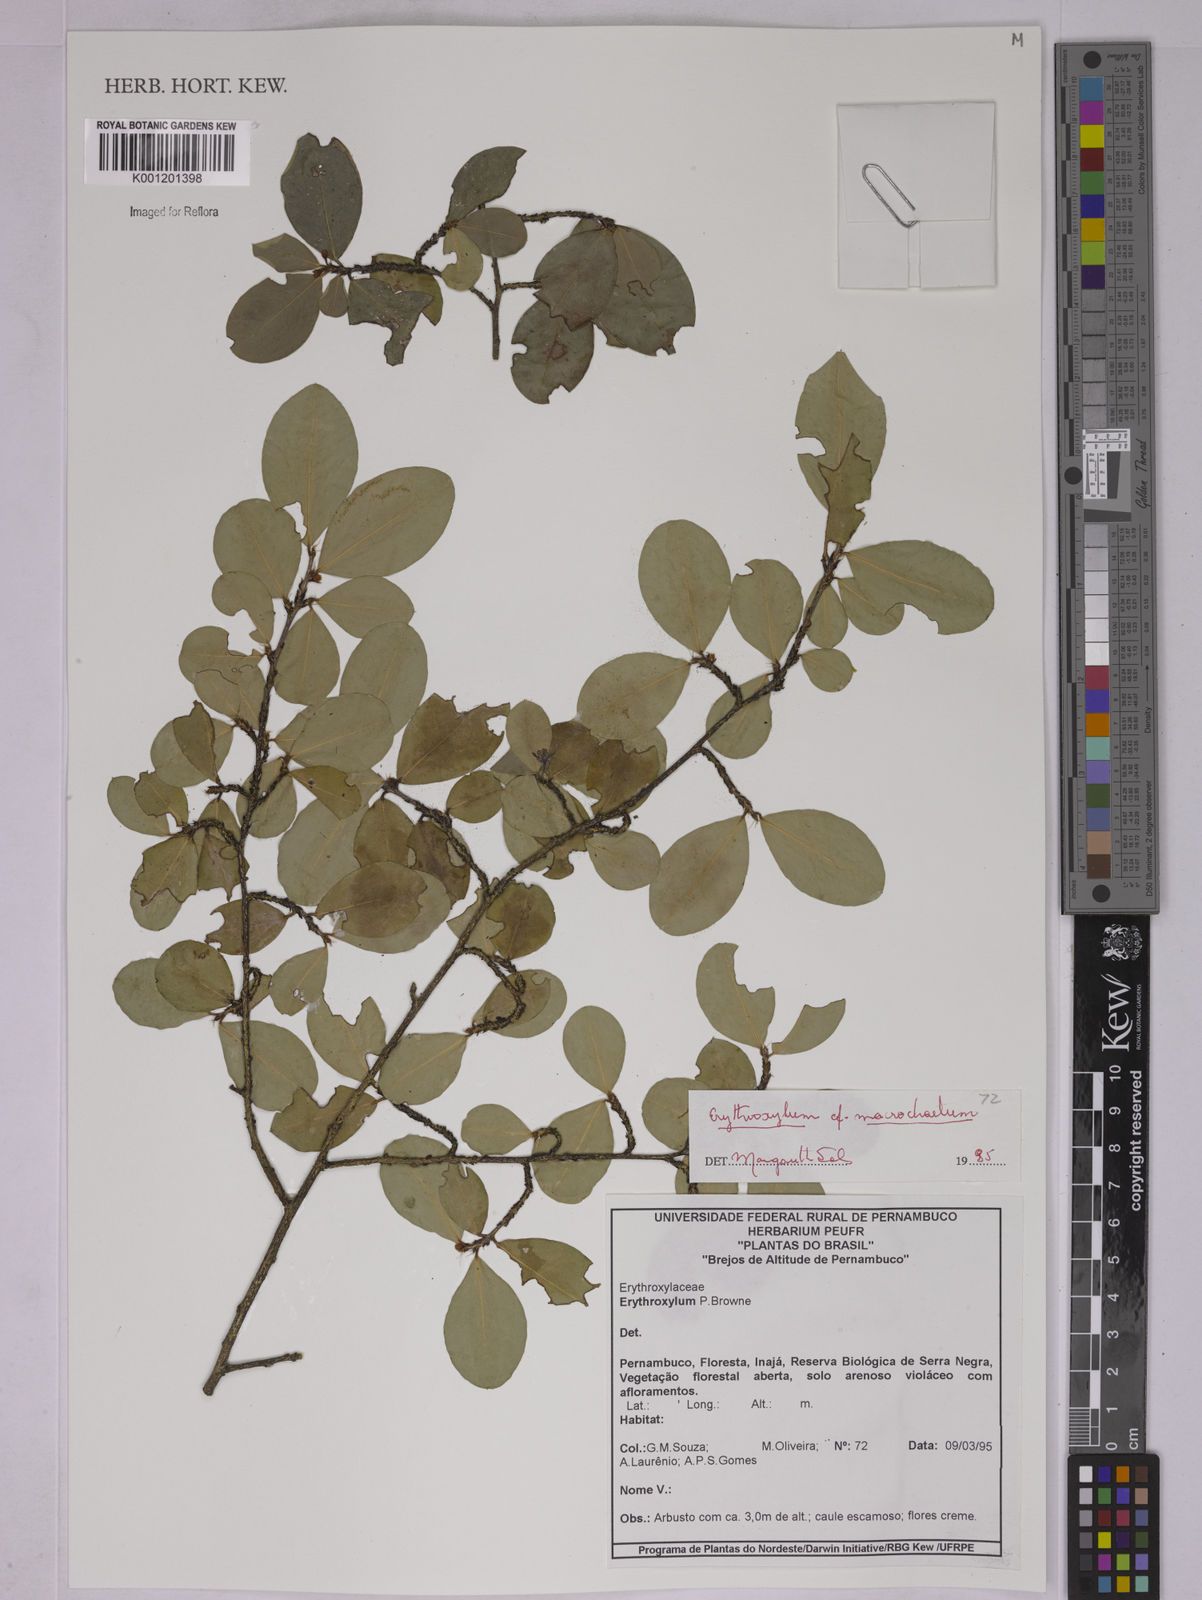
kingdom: Plantae
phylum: Tracheophyta
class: Magnoliopsida
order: Malpighiales
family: Erythroxylaceae
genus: Erythroxylum
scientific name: Erythroxylum macrochaetum
